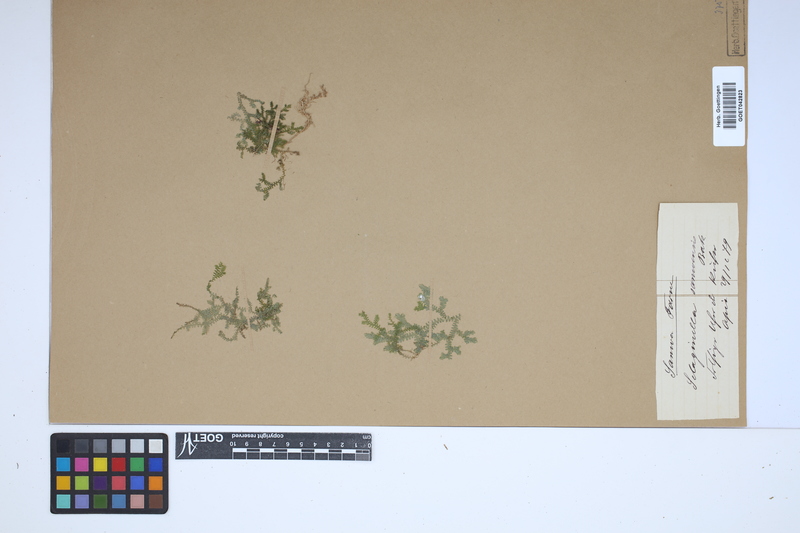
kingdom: Plantae
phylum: Tracheophyta
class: Lycopodiopsida
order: Selaginellales
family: Selaginellaceae
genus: Selaginella
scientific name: Selaginella laxa
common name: Lax spikemoss
